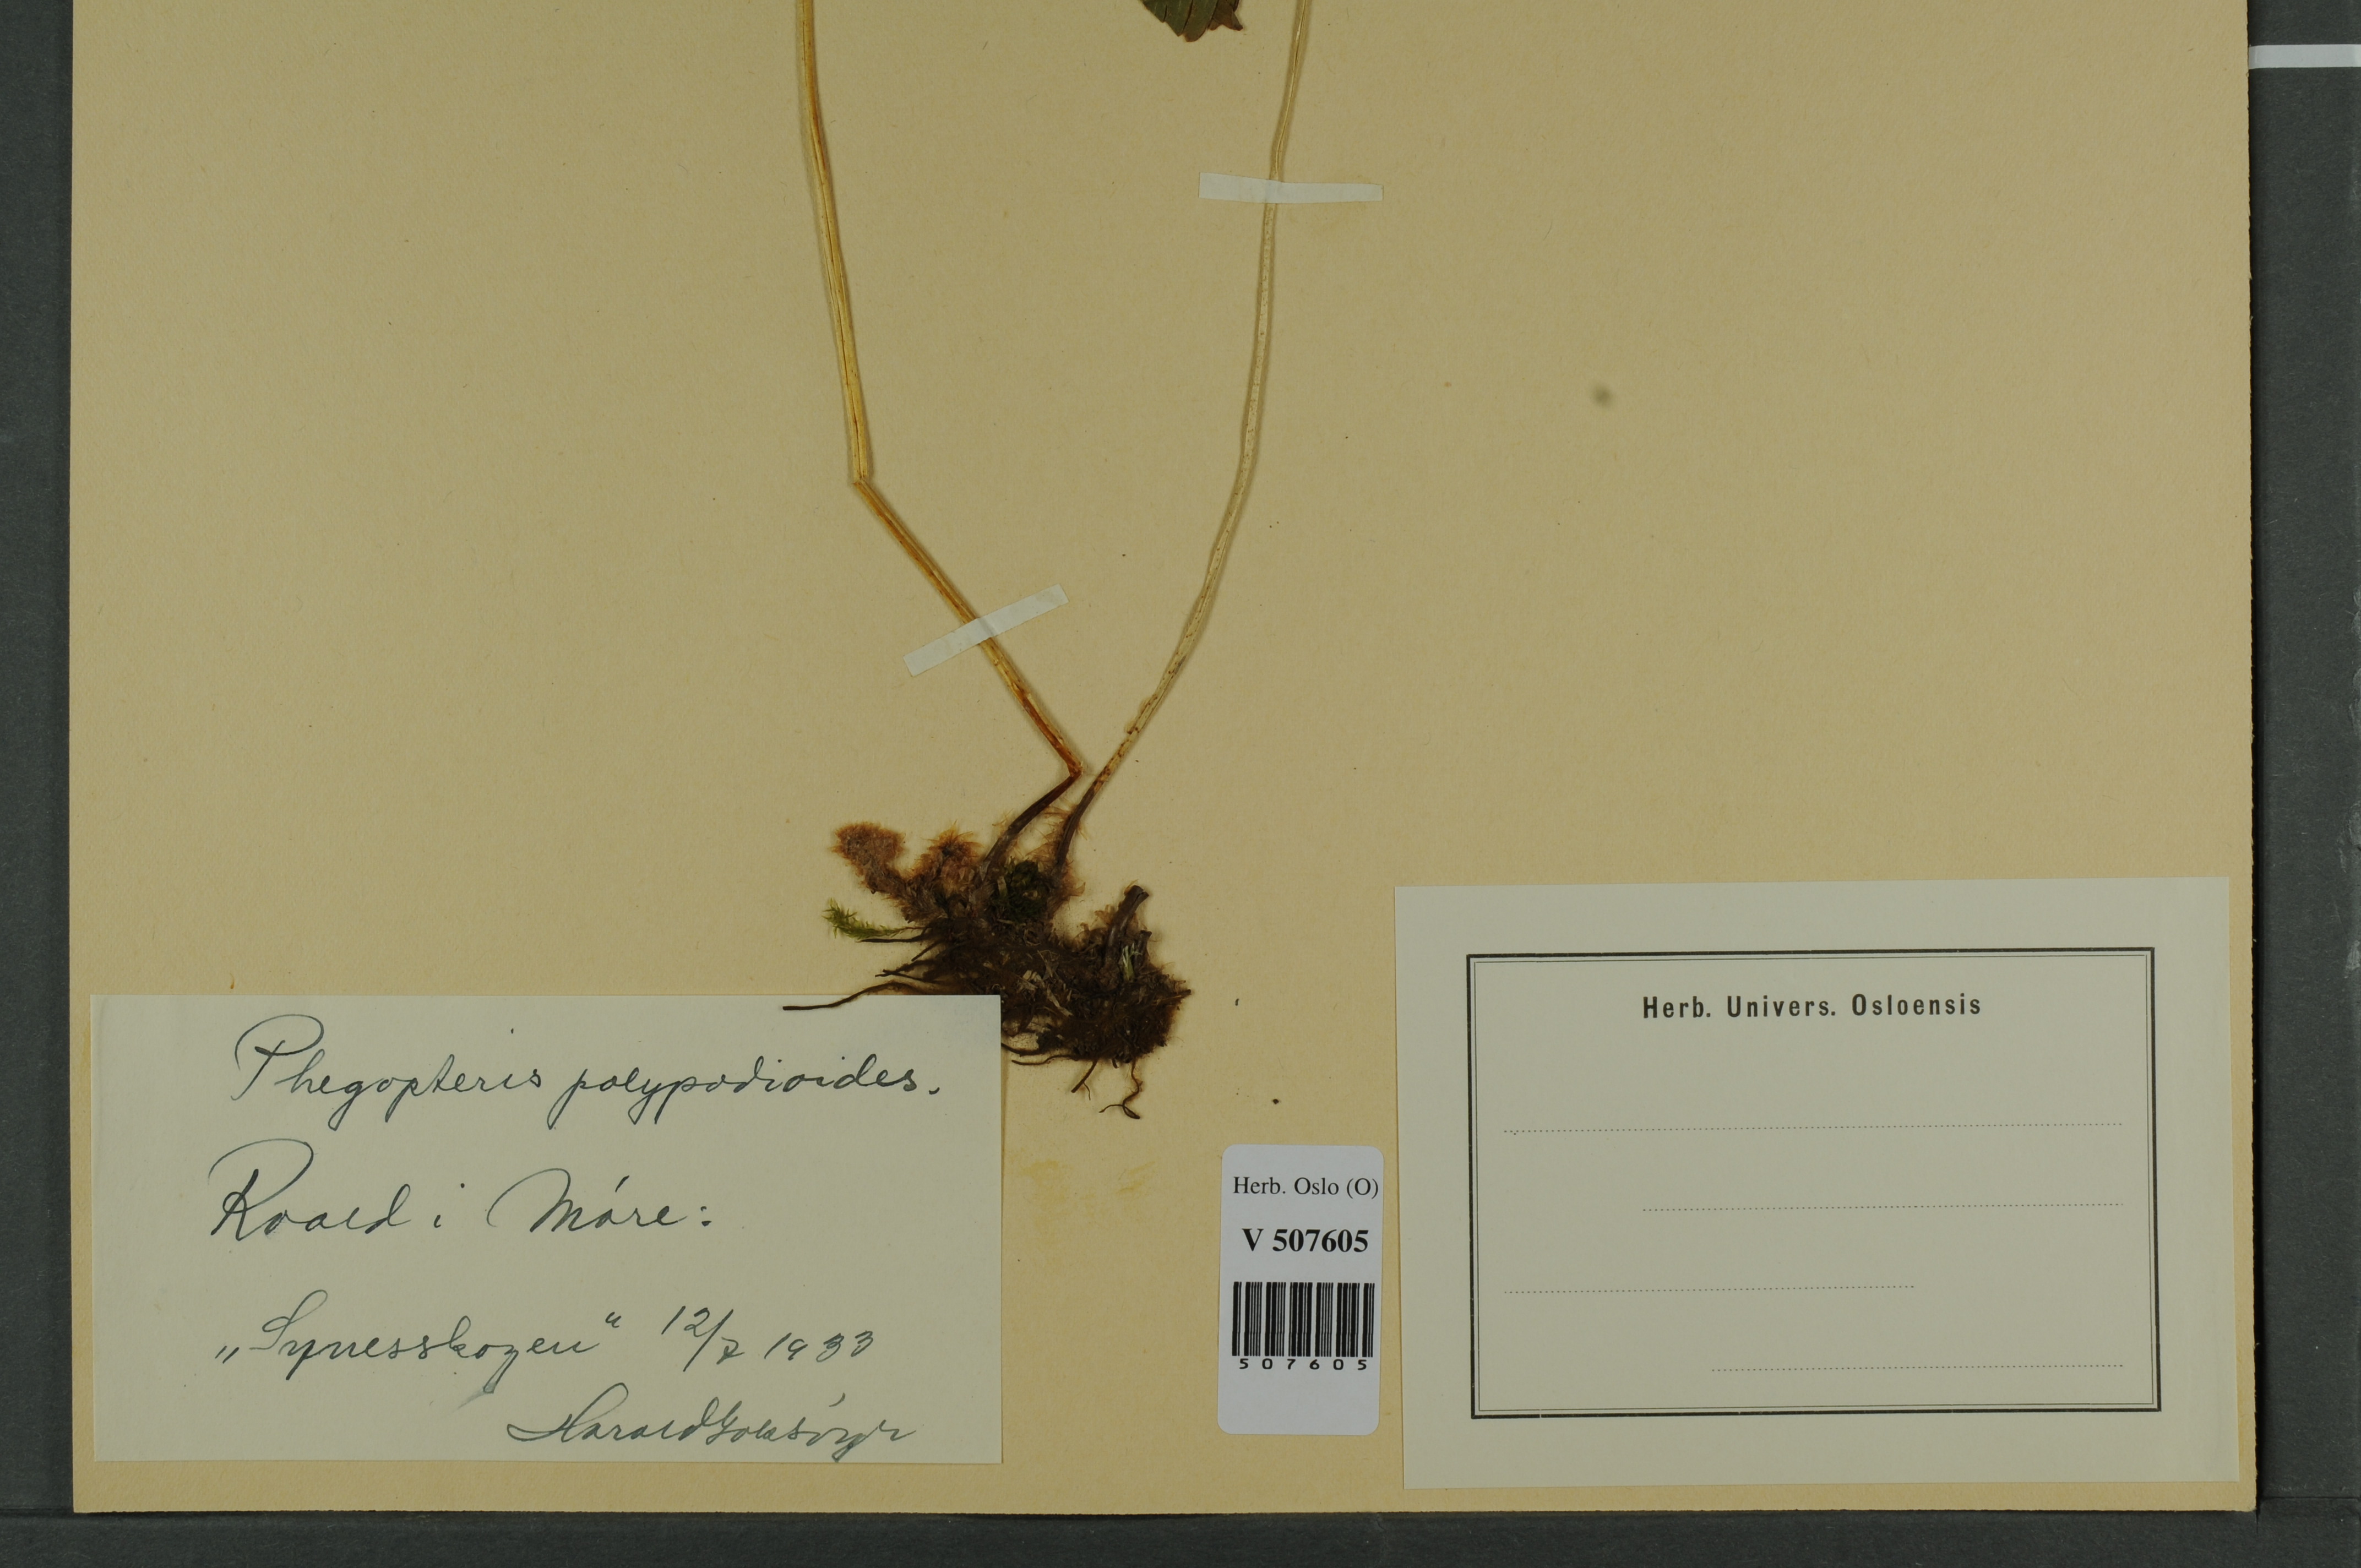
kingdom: Plantae
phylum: Tracheophyta
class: Polypodiopsida
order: Polypodiales
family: Thelypteridaceae
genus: Phegopteris
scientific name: Phegopteris connectilis
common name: Beech fern
